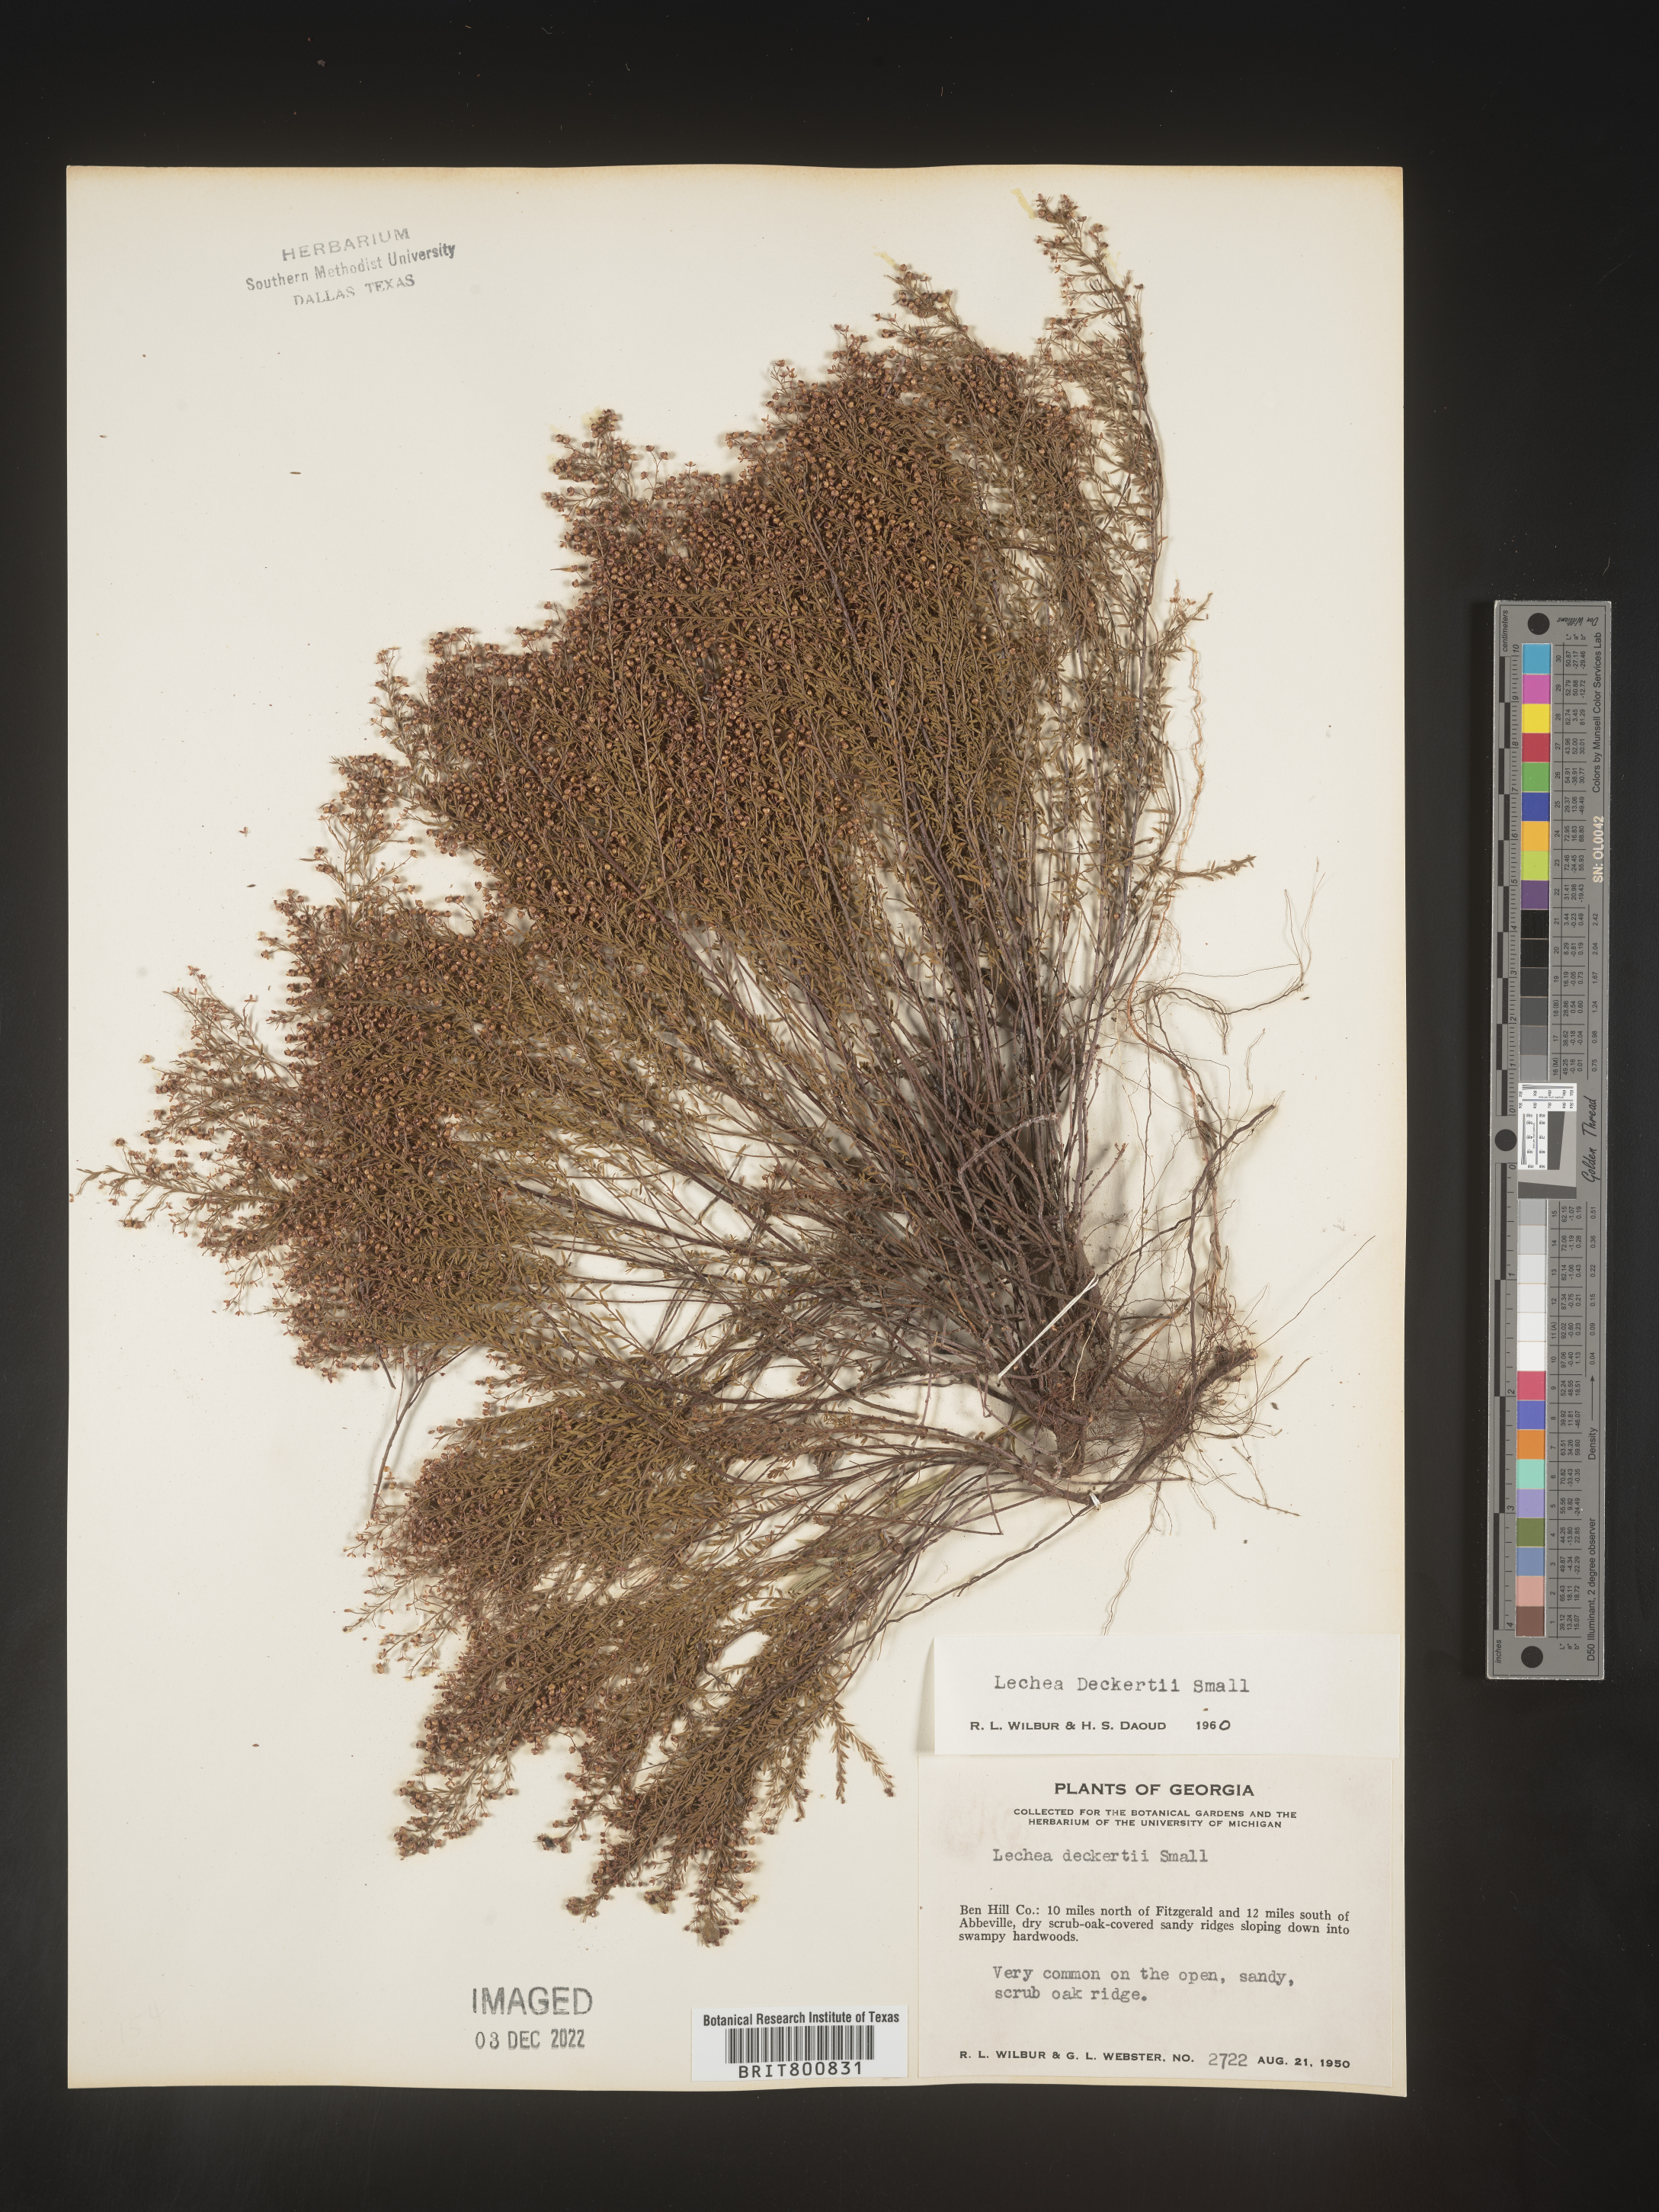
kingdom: Plantae
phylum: Tracheophyta
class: Magnoliopsida
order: Malvales
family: Cistaceae
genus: Lechea
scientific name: Lechea
